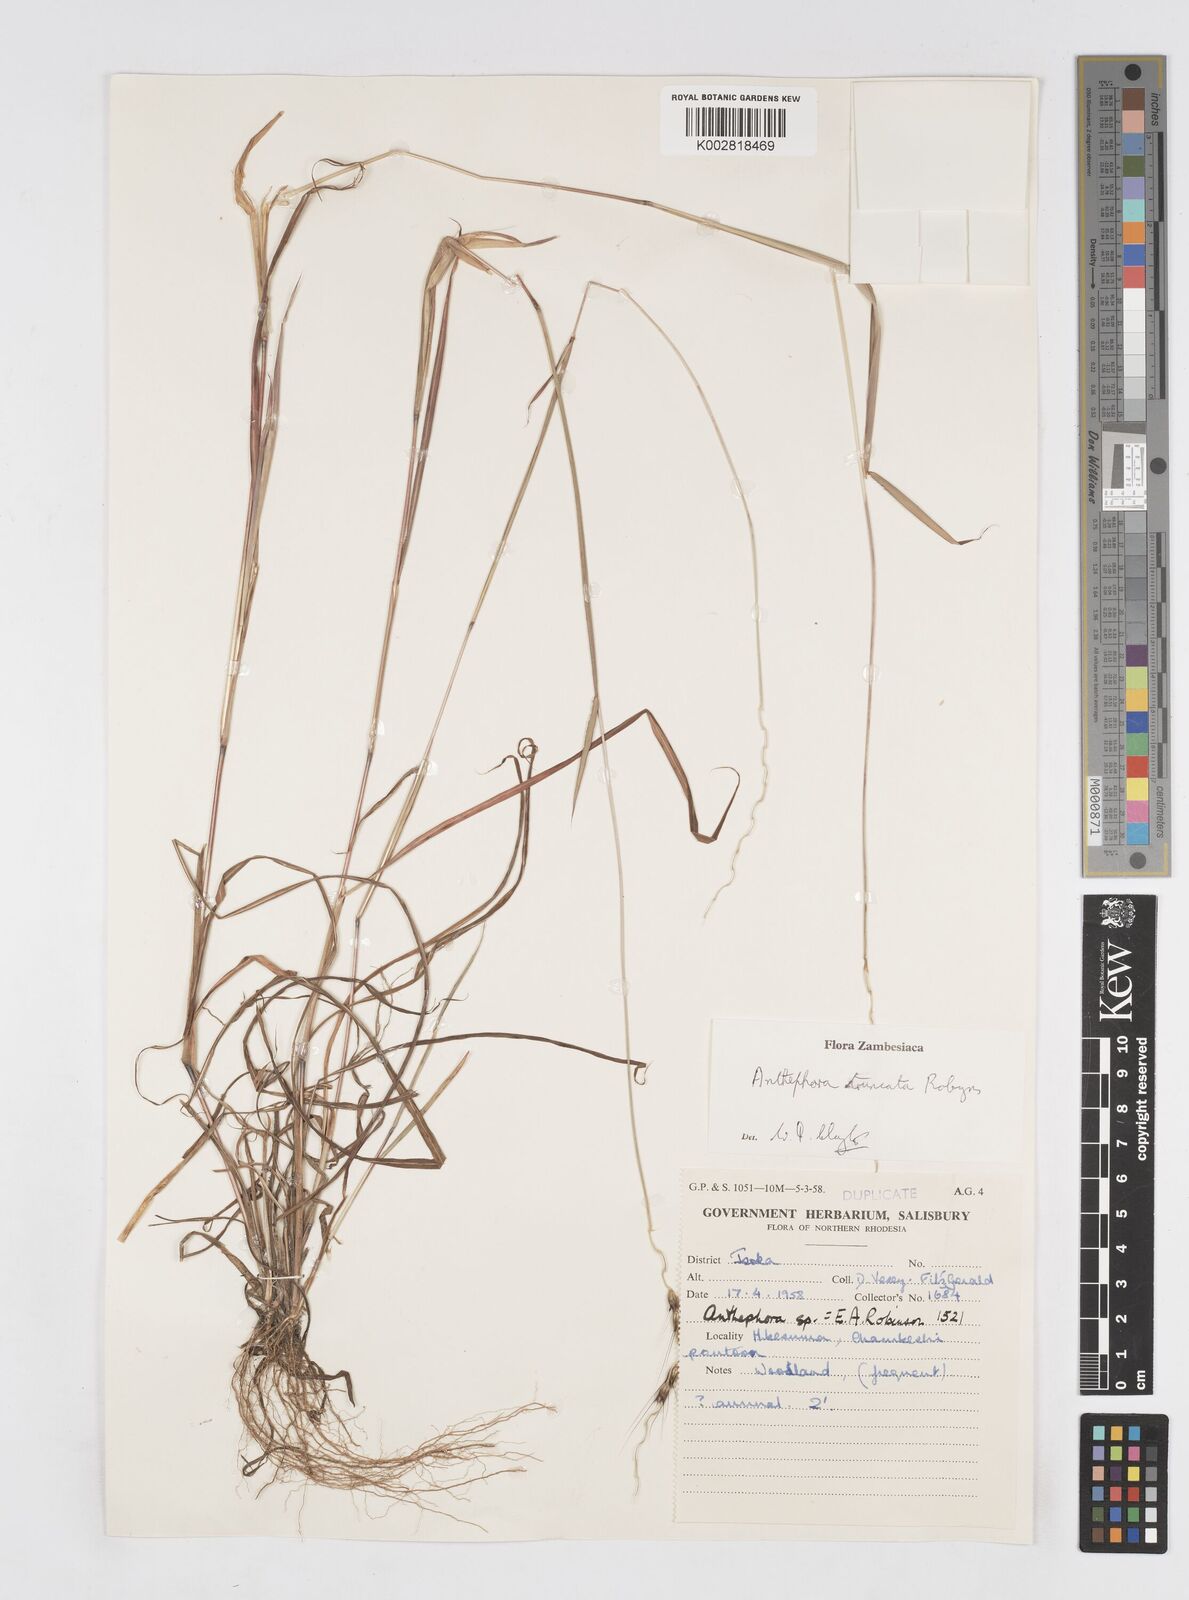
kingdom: Plantae
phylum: Tracheophyta
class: Liliopsida
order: Poales
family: Poaceae
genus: Anthephora
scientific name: Anthephora truncata
